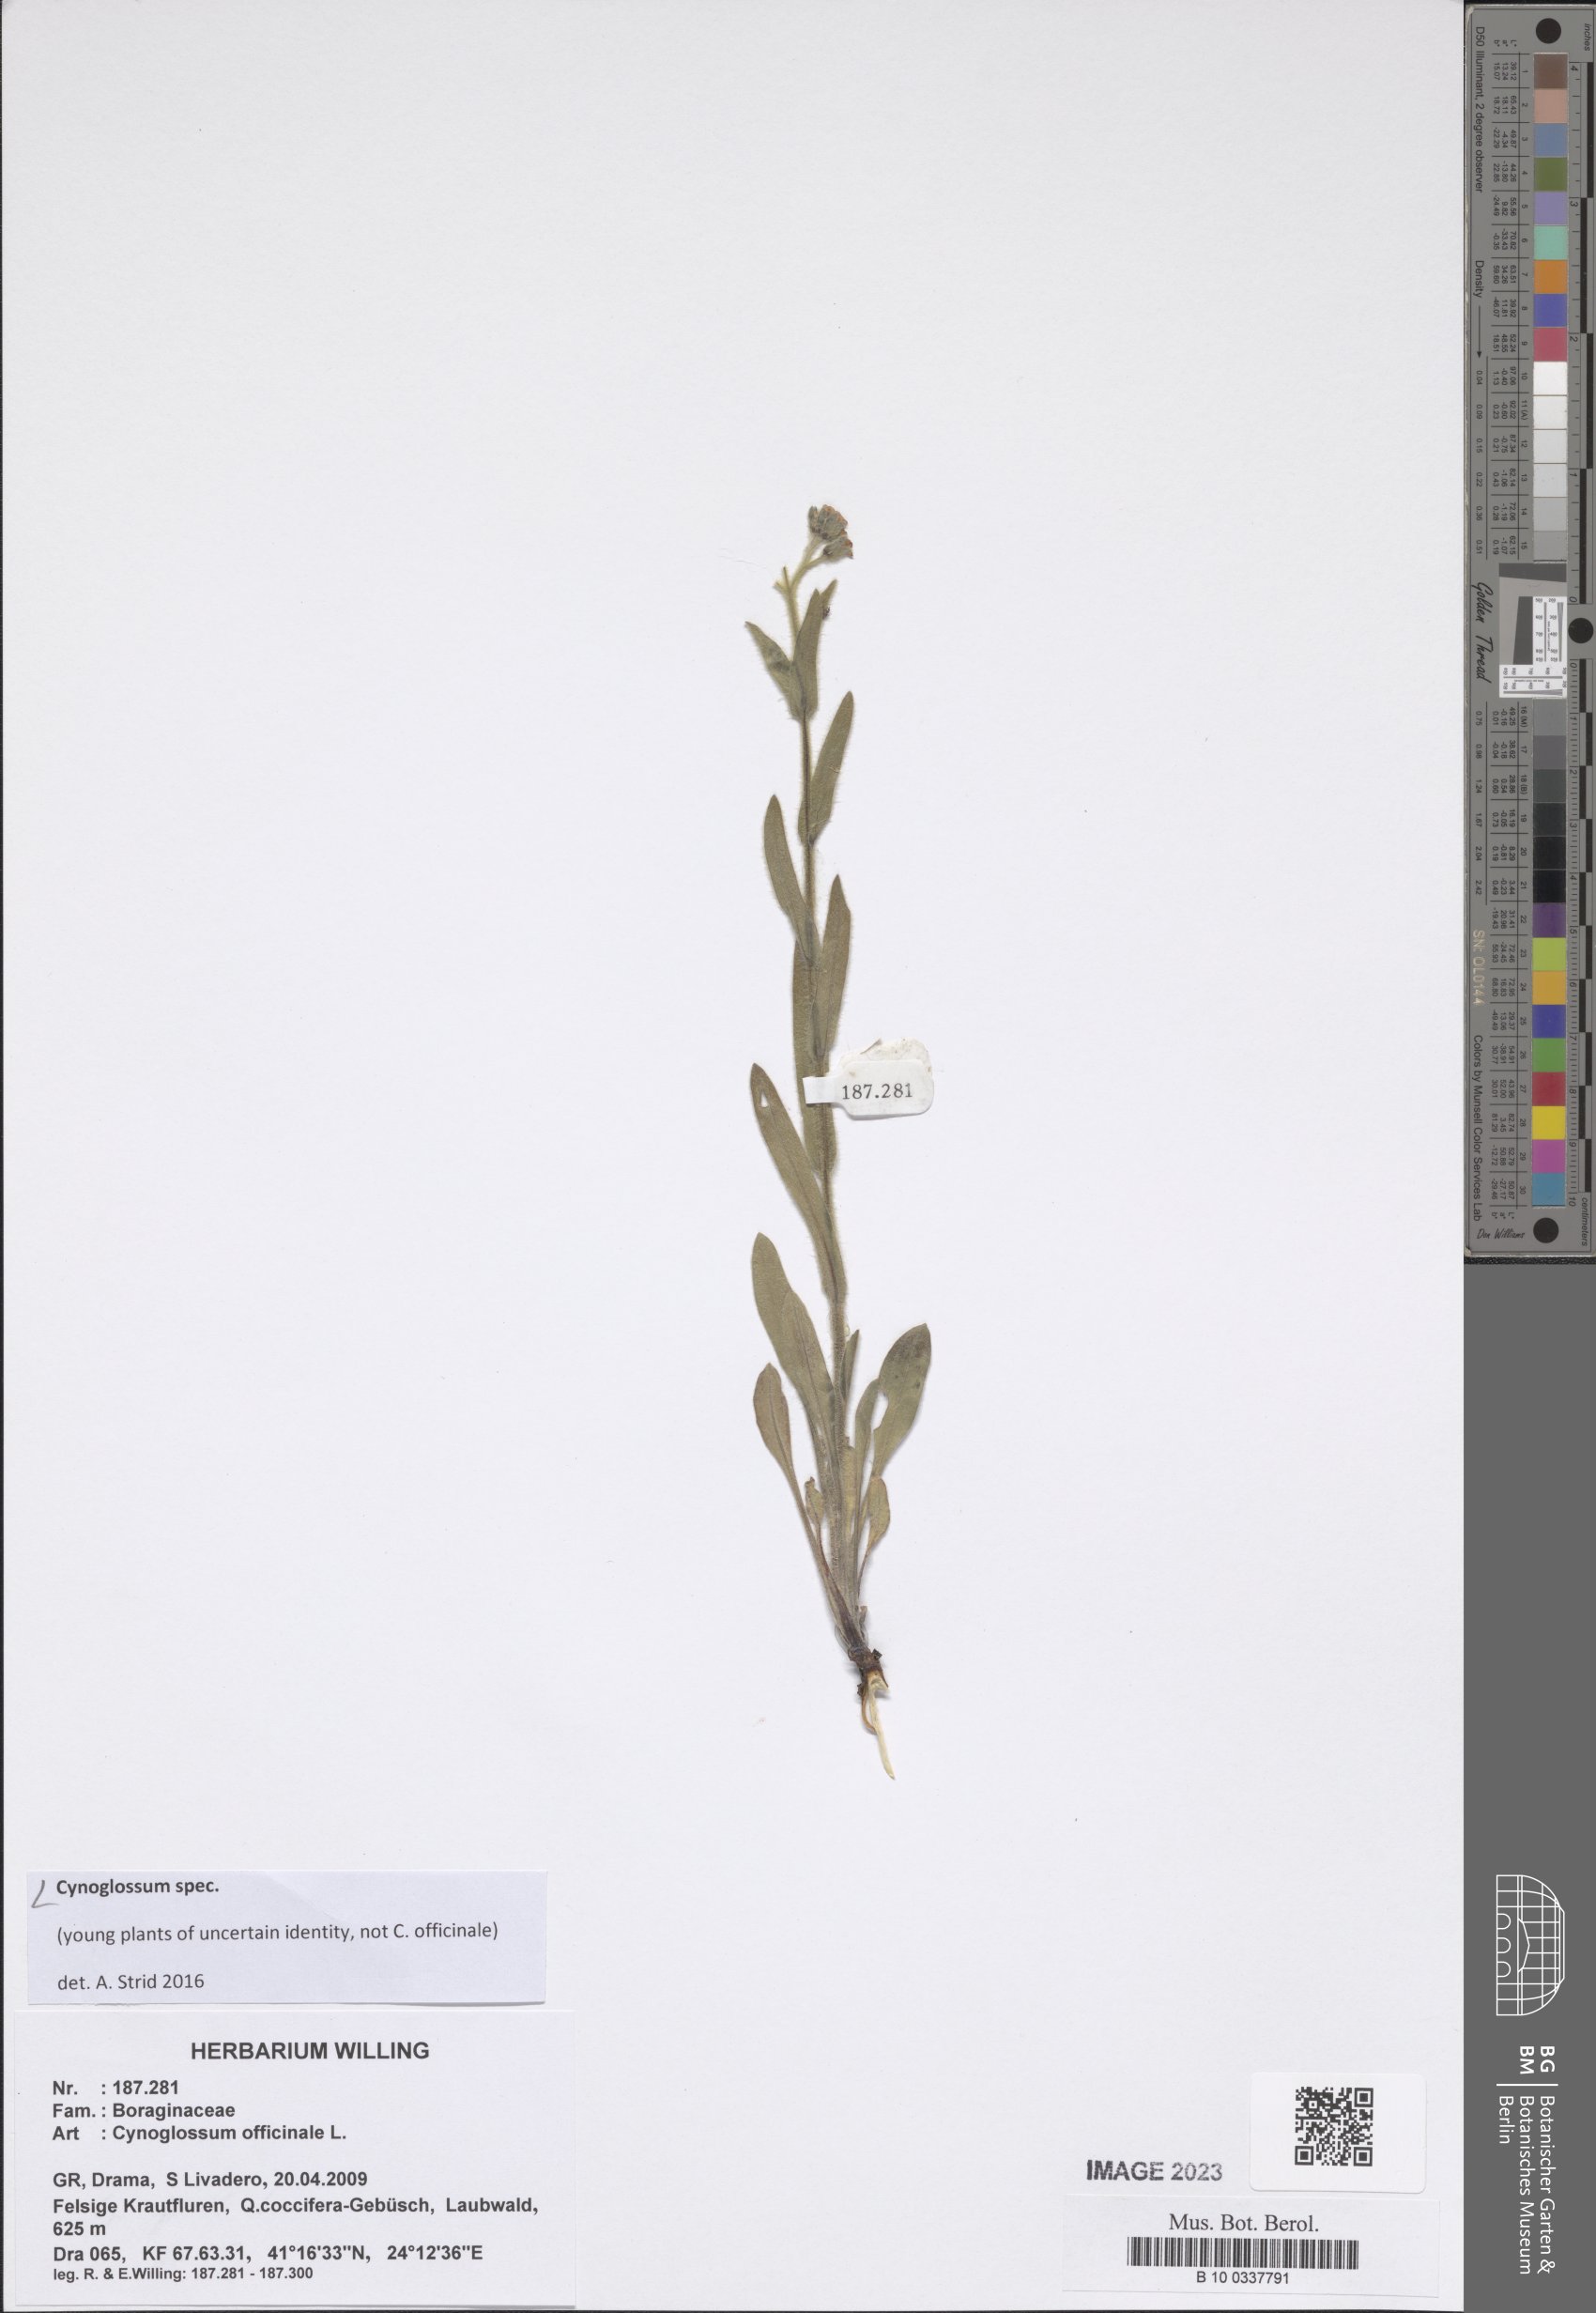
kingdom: Plantae
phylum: Tracheophyta
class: Magnoliopsida
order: Boraginales
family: Boraginaceae
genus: Cynoglossum
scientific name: Cynoglossum
